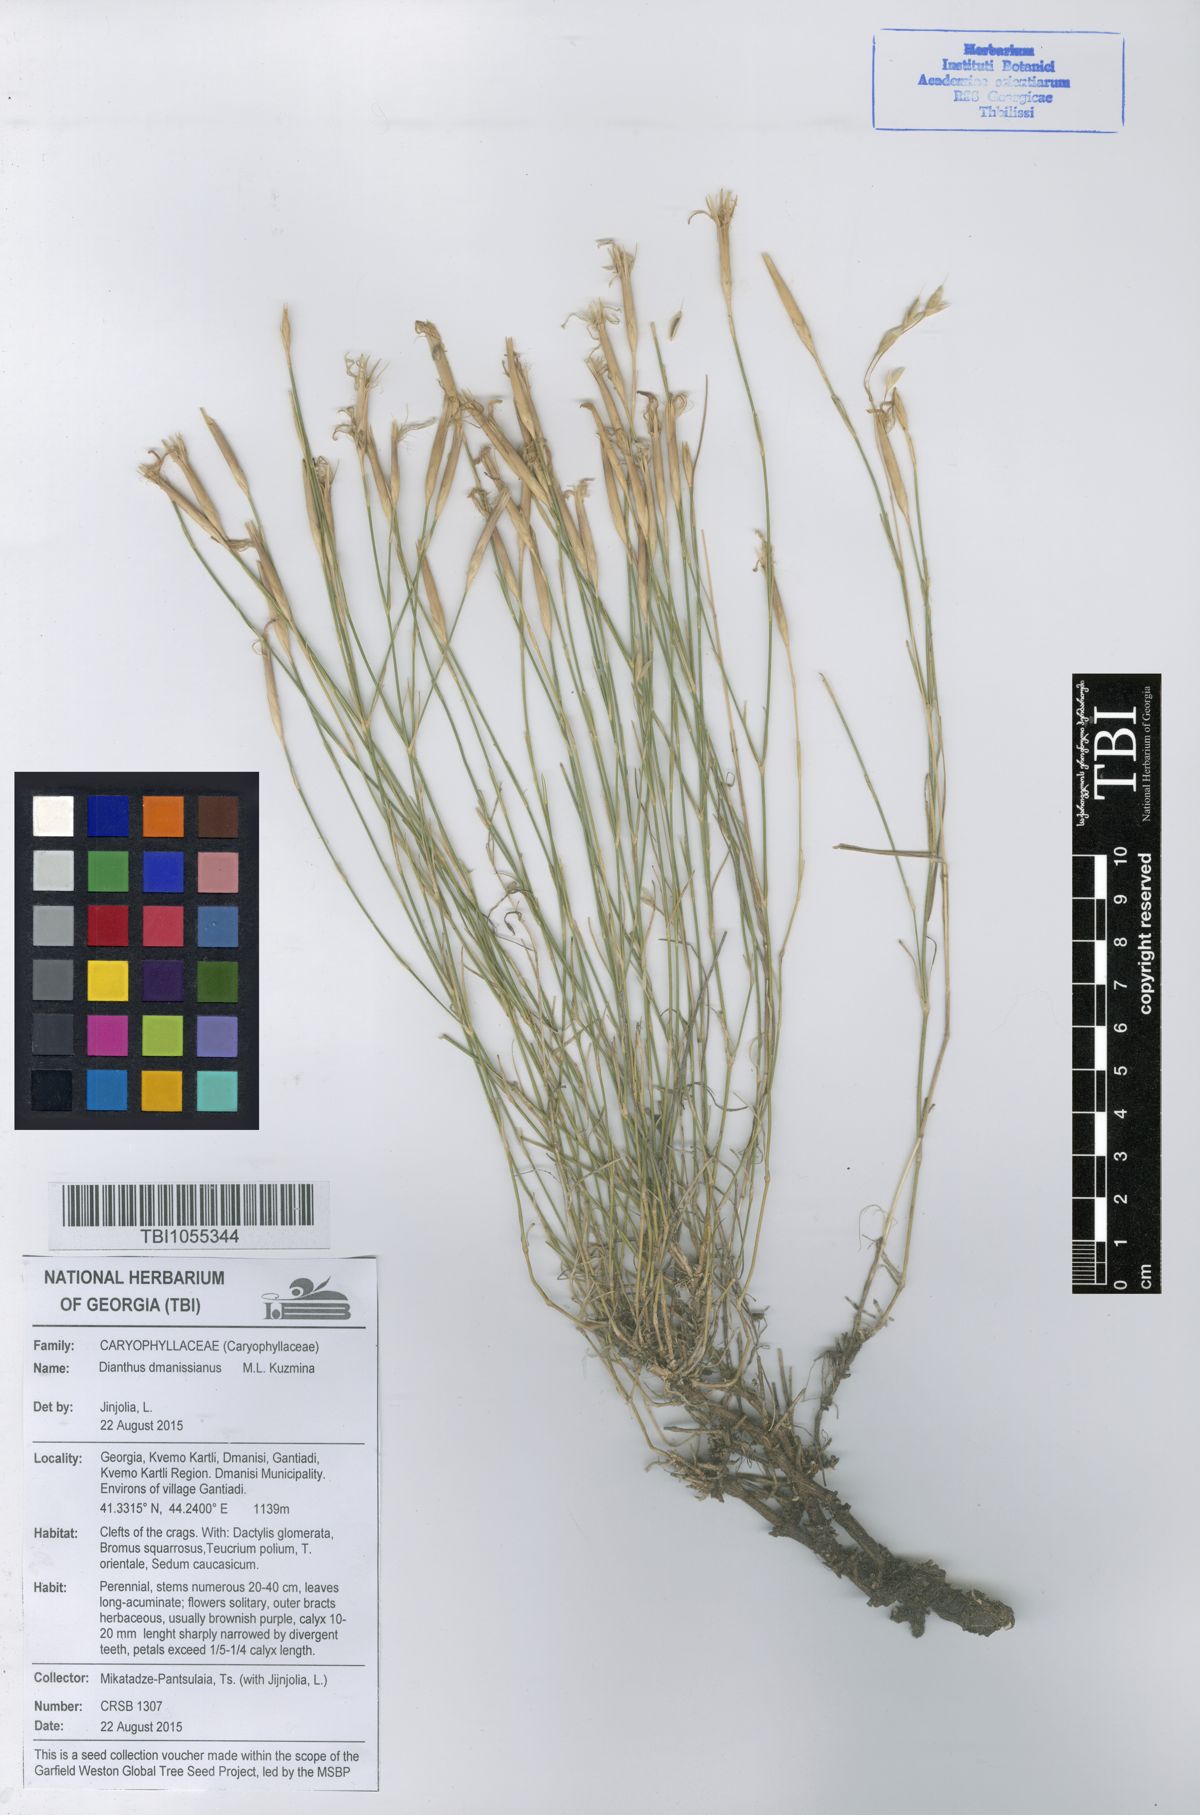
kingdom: Plantae
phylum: Tracheophyta
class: Magnoliopsida
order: Caryophyllales
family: Caryophyllaceae
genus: Dianthus
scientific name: Dianthus cretaceus
